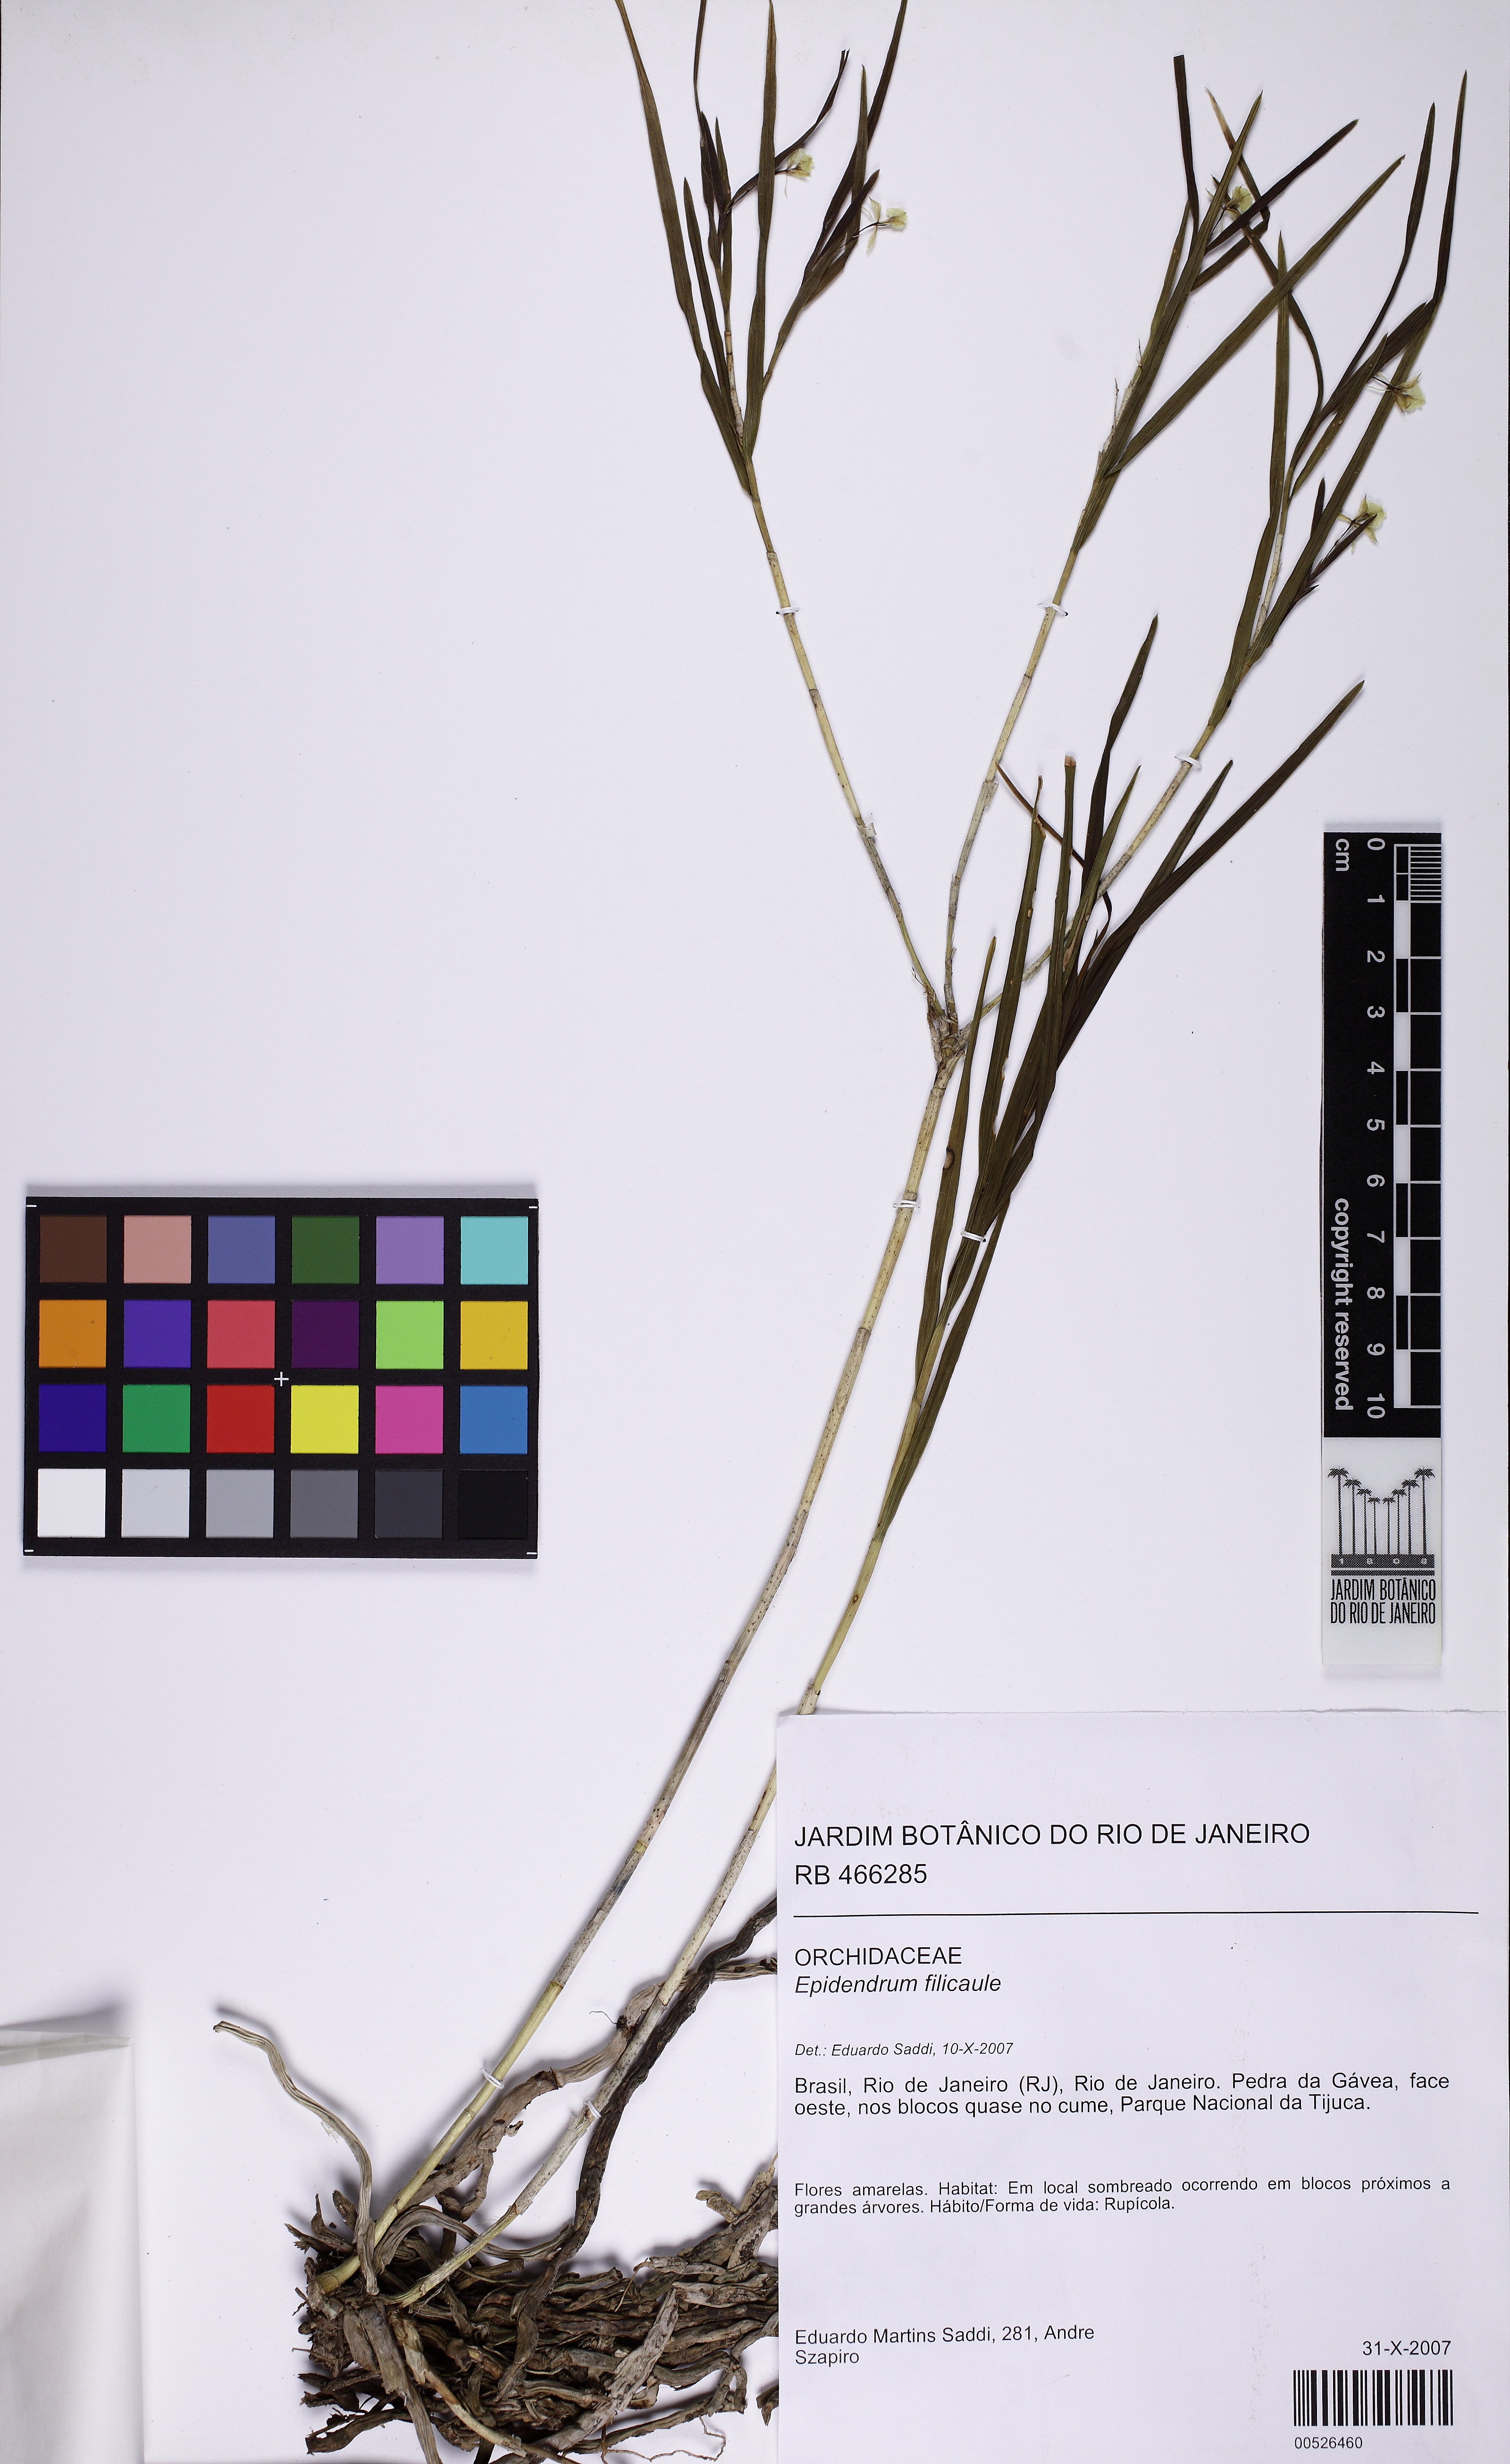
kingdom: Plantae
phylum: Tracheophyta
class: Liliopsida
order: Asparagales
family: Orchidaceae
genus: Epidendrum
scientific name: Epidendrum filicaule
